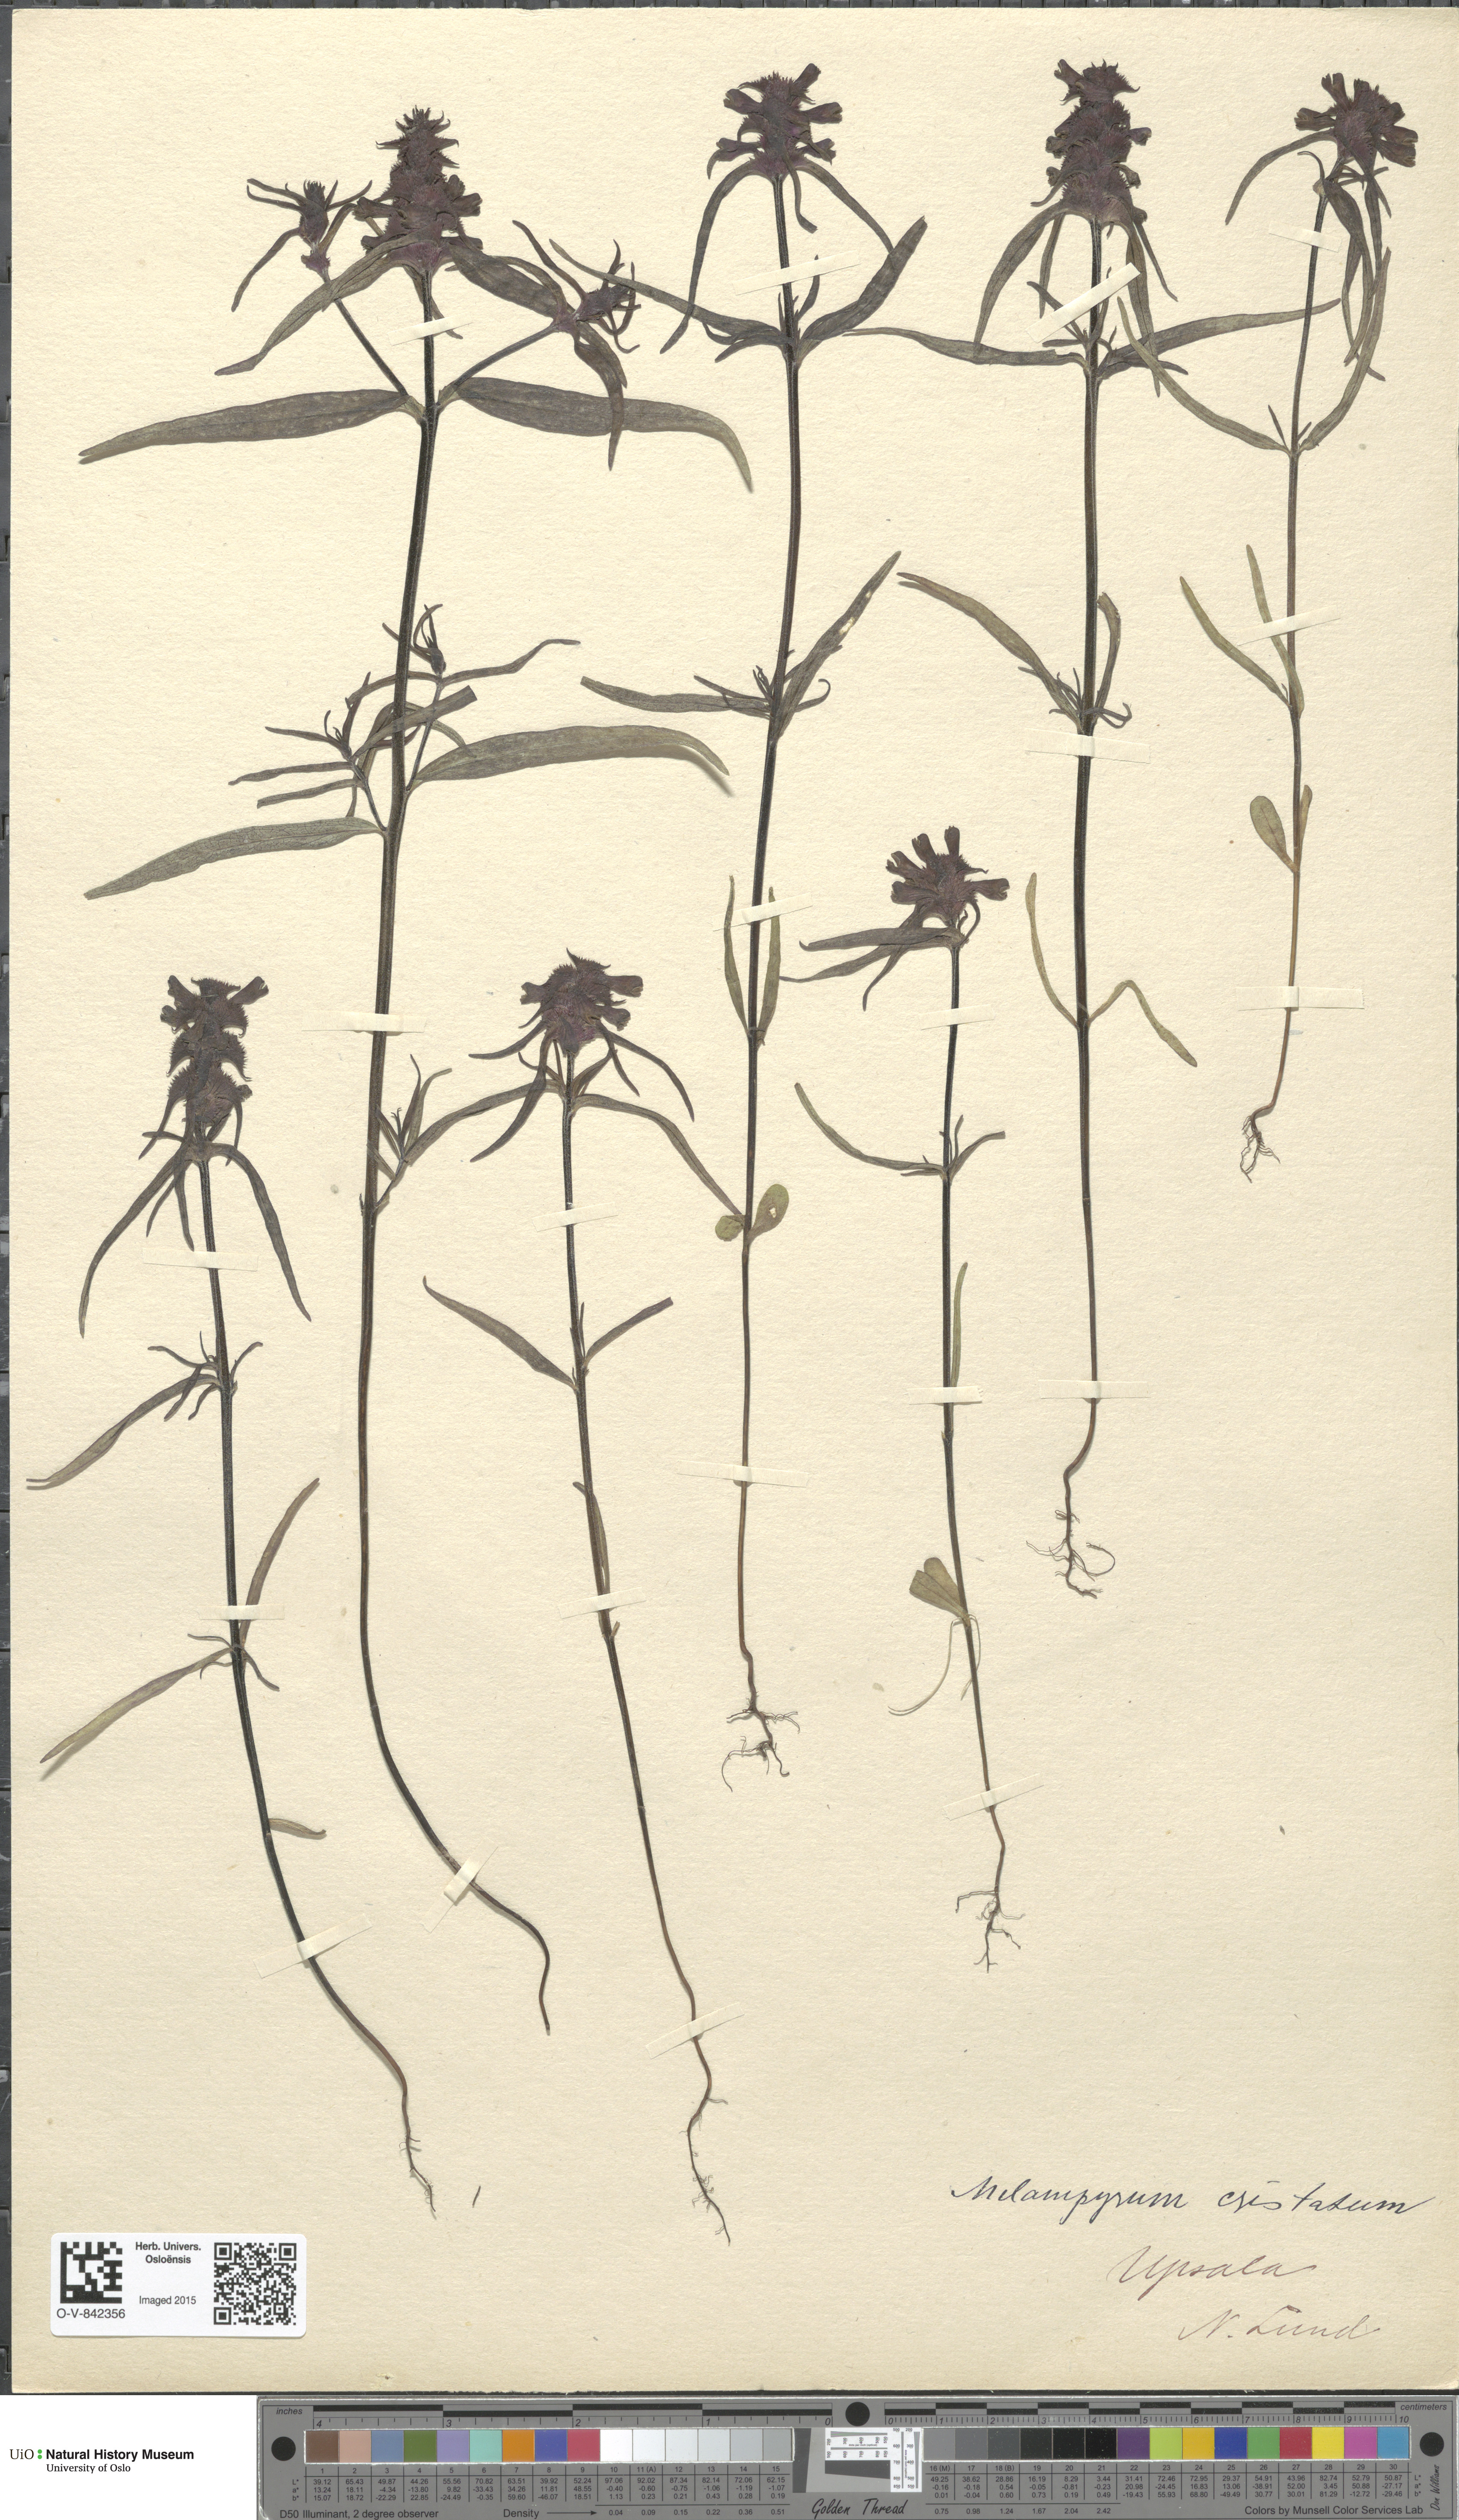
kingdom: Plantae
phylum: Tracheophyta
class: Magnoliopsida
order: Lamiales
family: Orobanchaceae
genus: Melampyrum
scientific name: Melampyrum cristatum
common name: Crested cow-wheat
